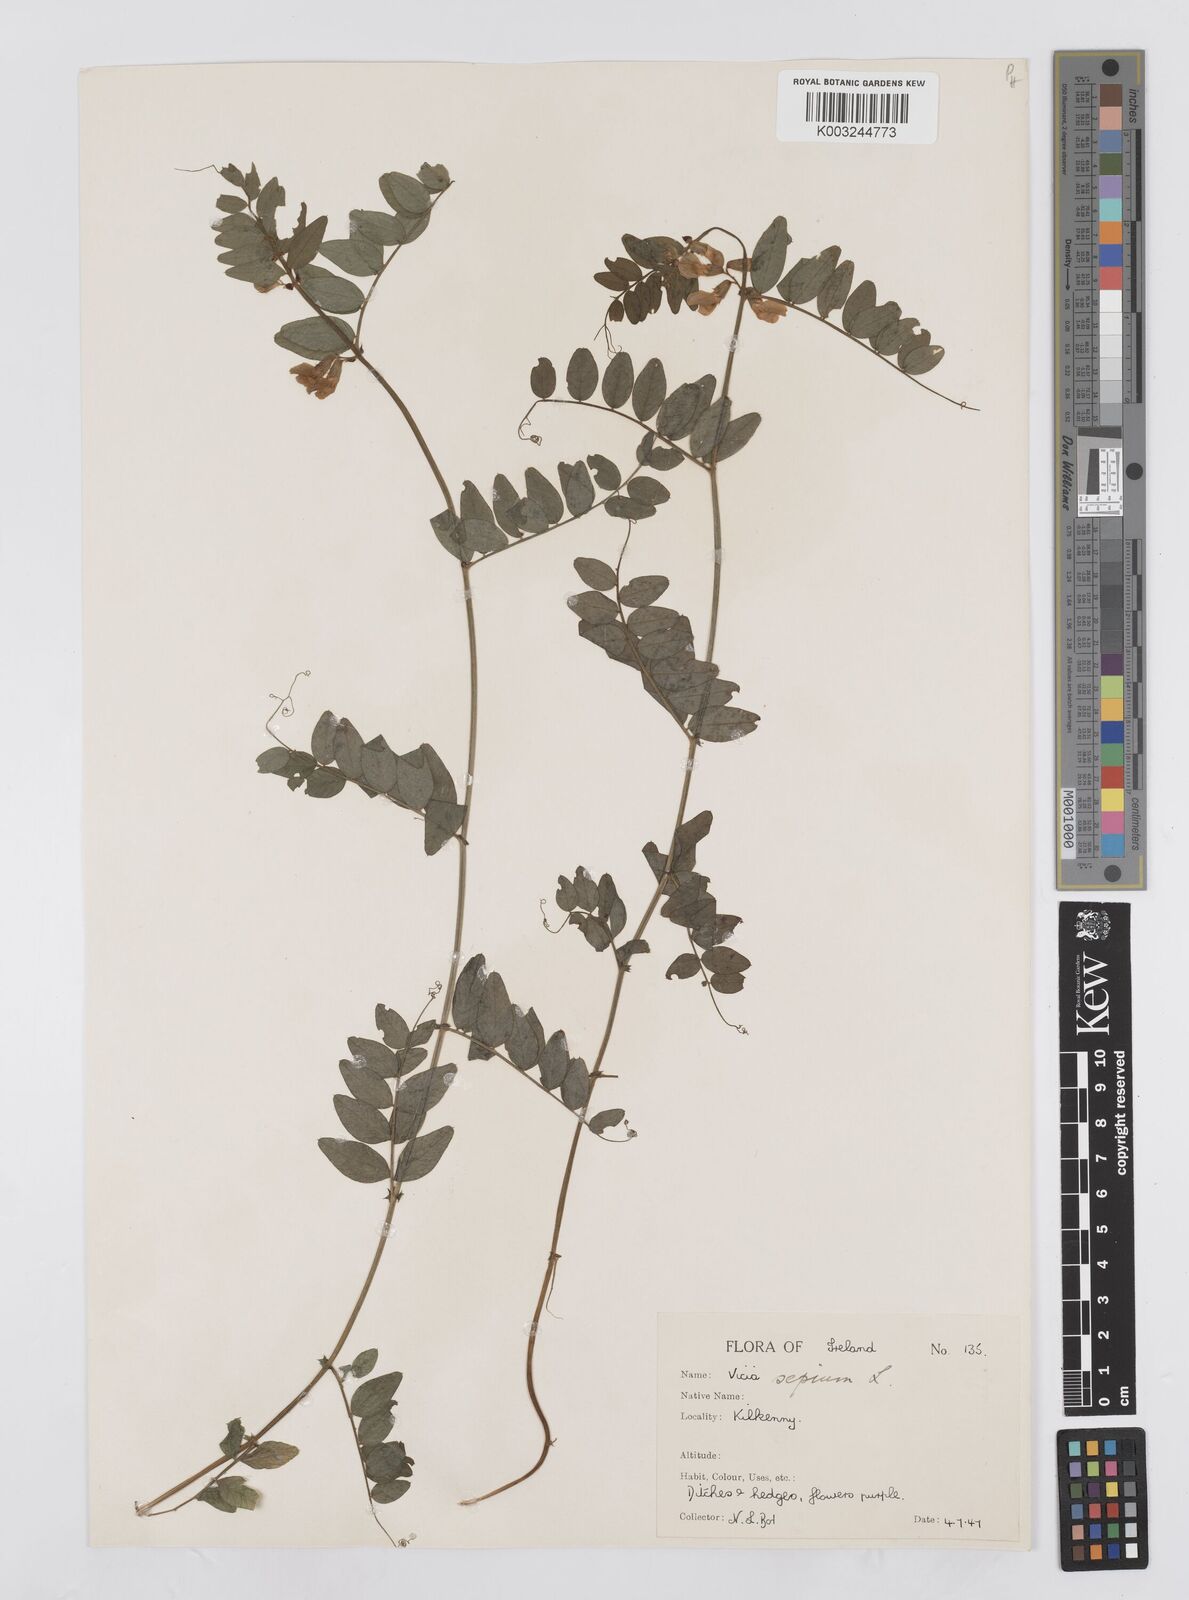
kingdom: Plantae
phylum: Tracheophyta
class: Magnoliopsida
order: Fabales
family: Fabaceae
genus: Vicia
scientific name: Vicia sepium
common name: Bush vetch
